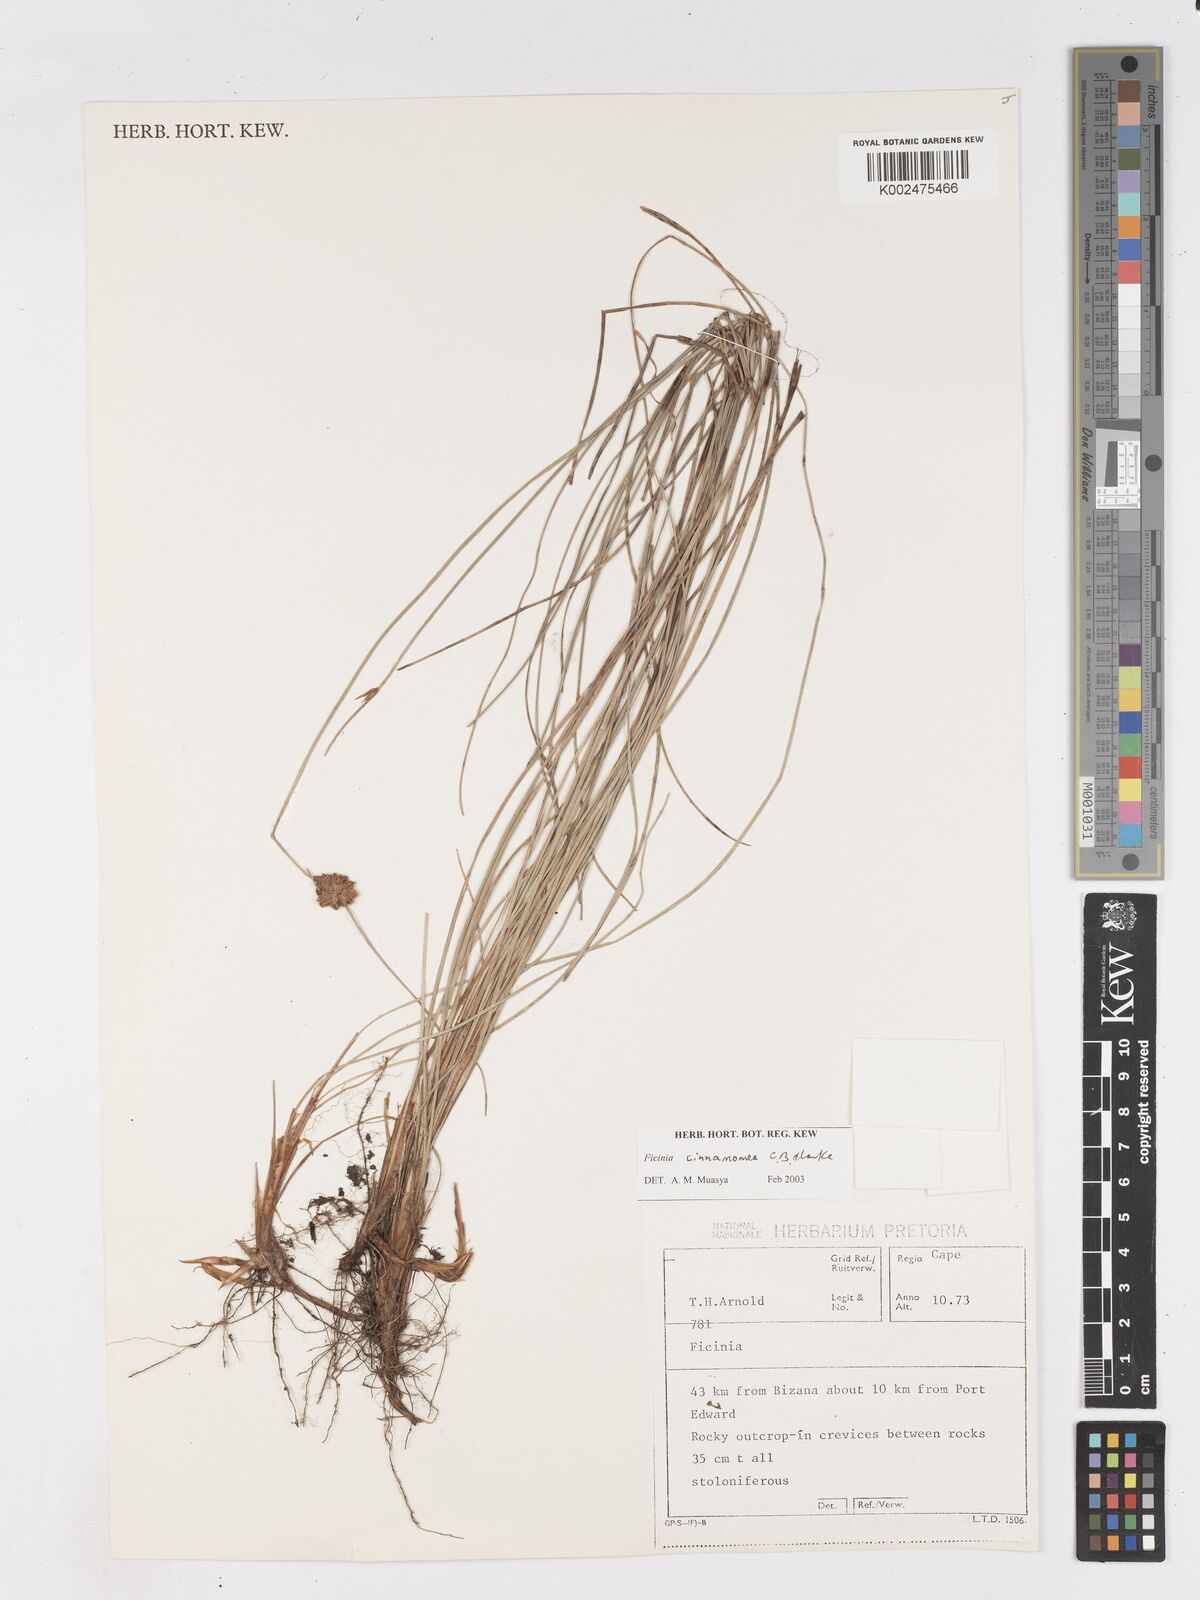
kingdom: Plantae
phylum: Tracheophyta
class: Liliopsida
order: Poales
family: Cyperaceae
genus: Ficinia
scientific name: Ficinia cinnamomea
